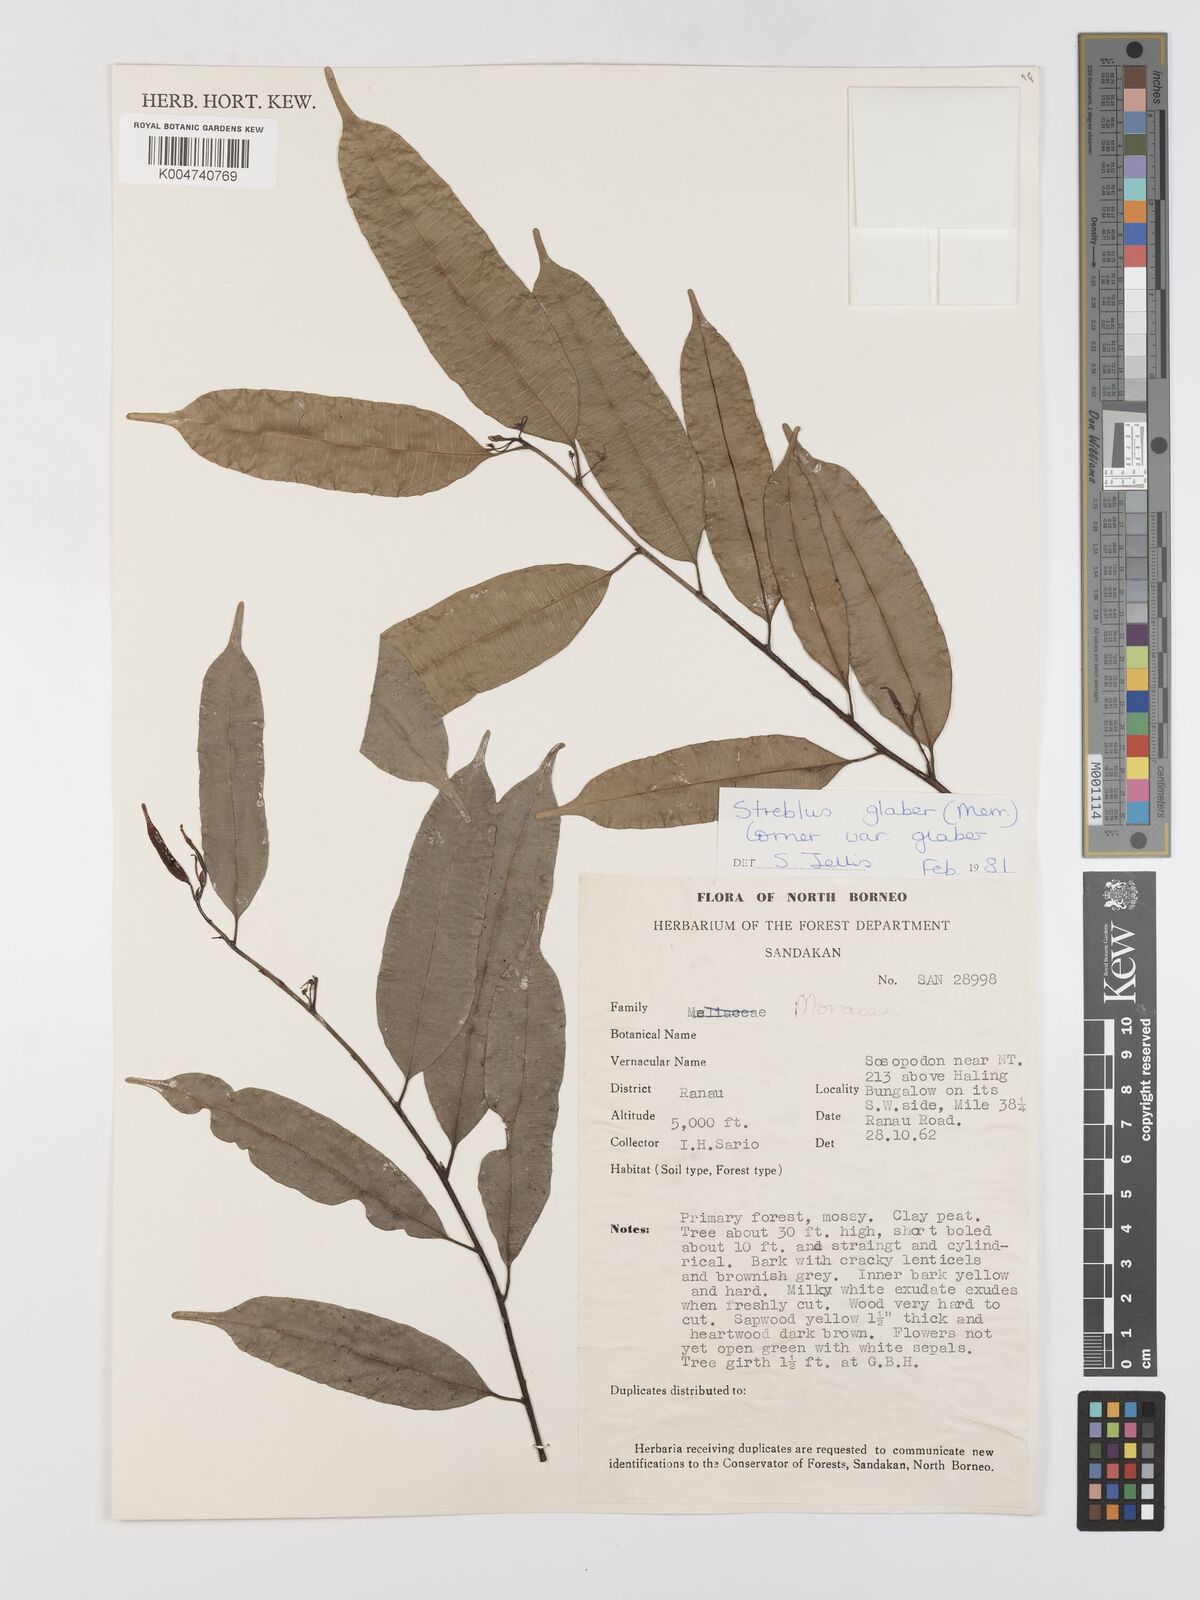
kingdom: Plantae
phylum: Tracheophyta
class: Magnoliopsida
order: Rosales
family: Moraceae
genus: Paratrophis
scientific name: Paratrophis glabra
